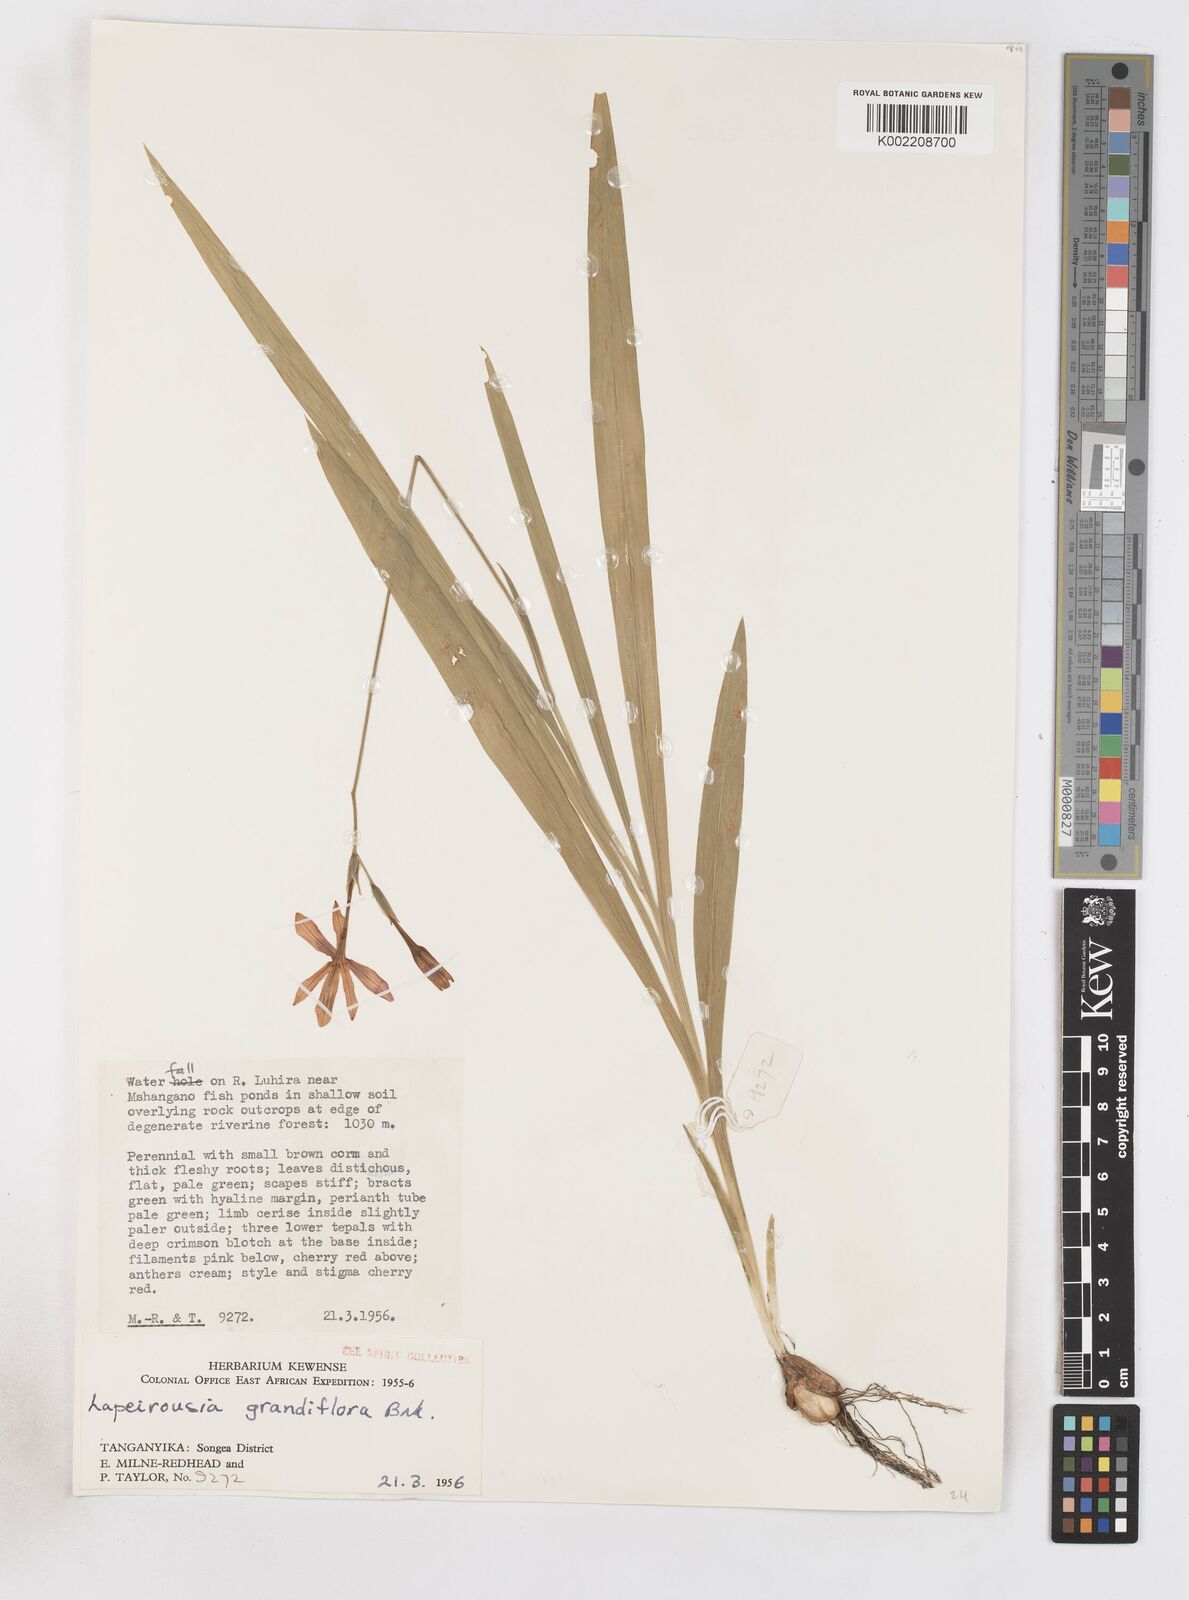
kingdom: Plantae
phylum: Tracheophyta
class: Liliopsida
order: Asparagales
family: Iridaceae
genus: Freesia
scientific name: Freesia grandiflora
